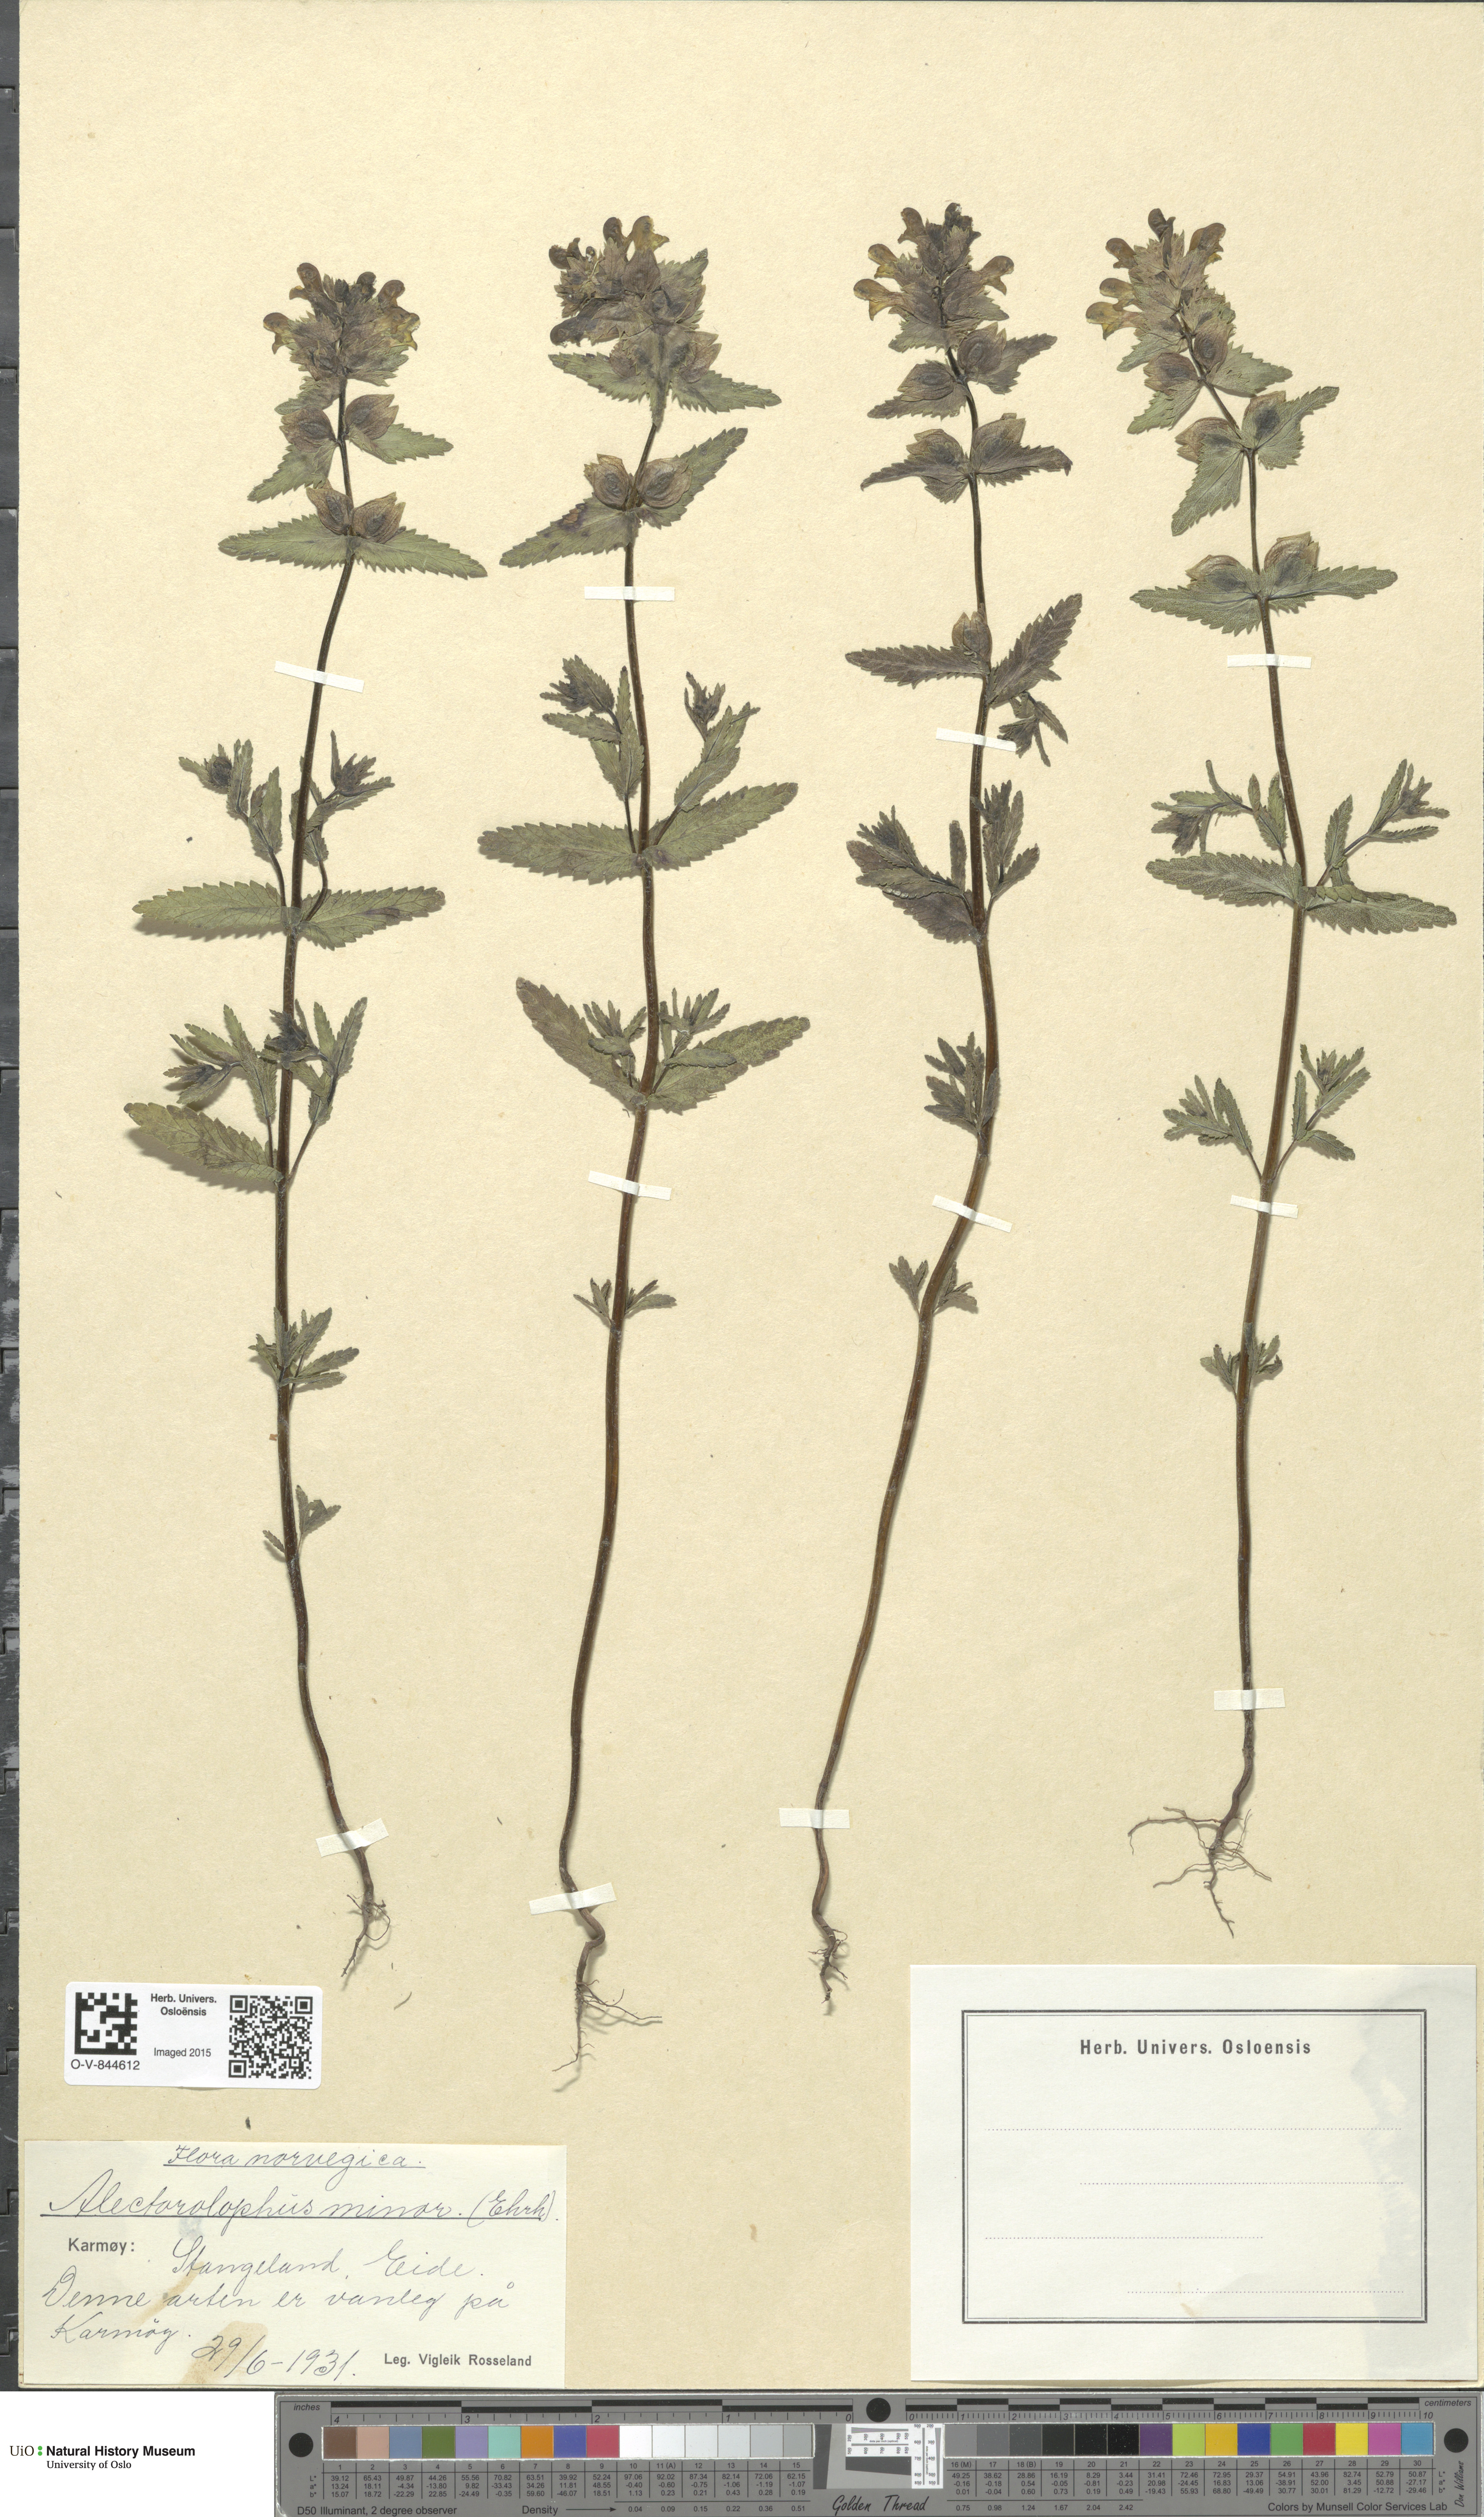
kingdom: Plantae
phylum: Tracheophyta
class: Magnoliopsida
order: Lamiales
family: Orobanchaceae
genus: Rhinanthus
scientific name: Rhinanthus minor
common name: Yellow-rattle
